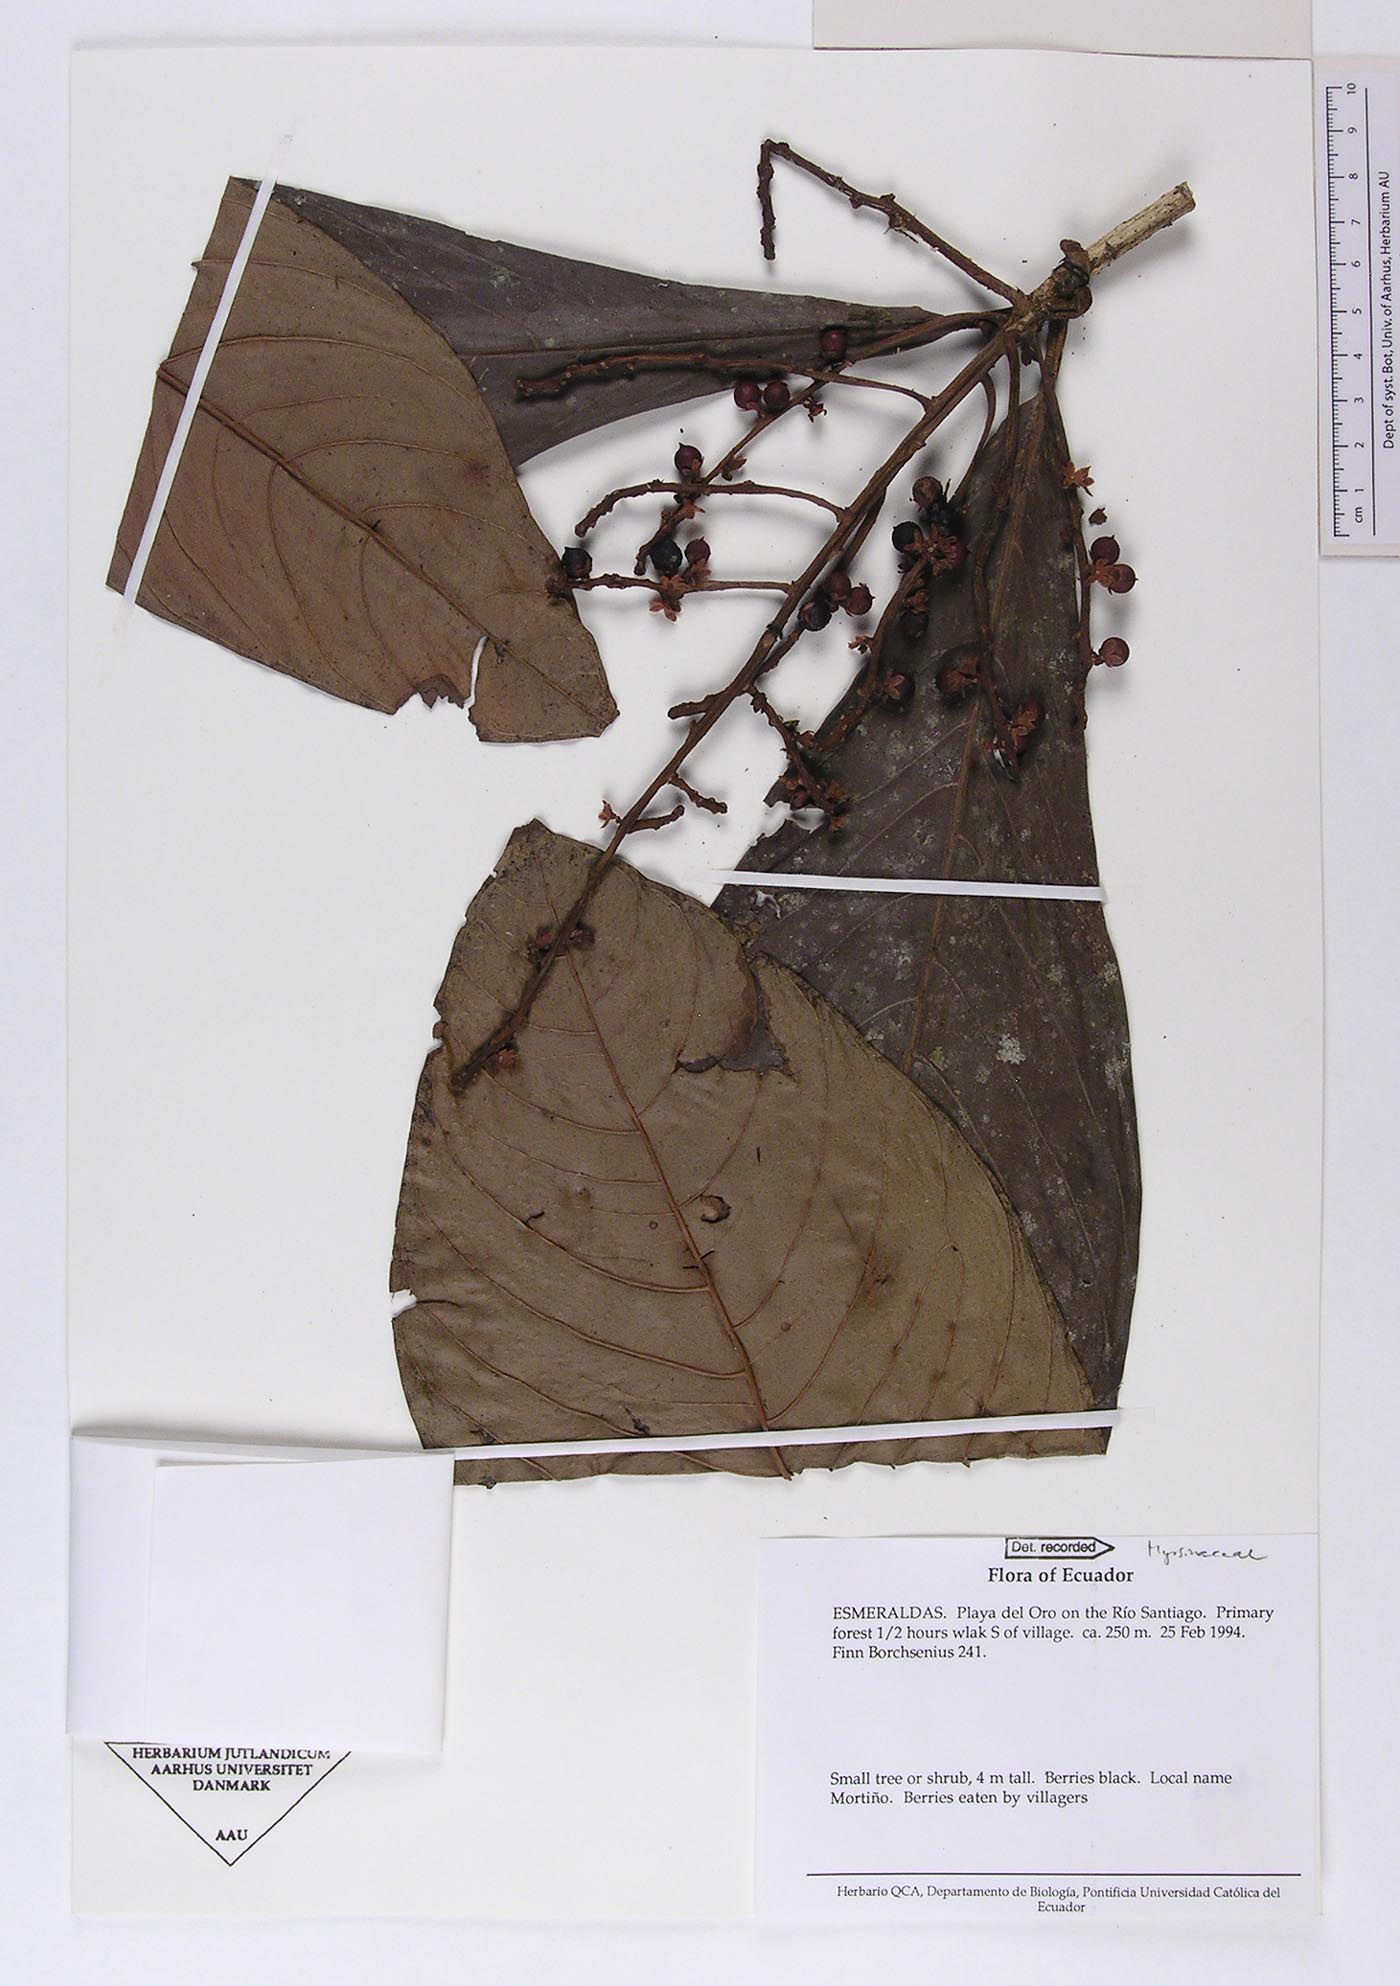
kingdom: Plantae
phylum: Tracheophyta
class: Magnoliopsida
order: Ericales
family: Primulaceae
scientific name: Primulaceae
